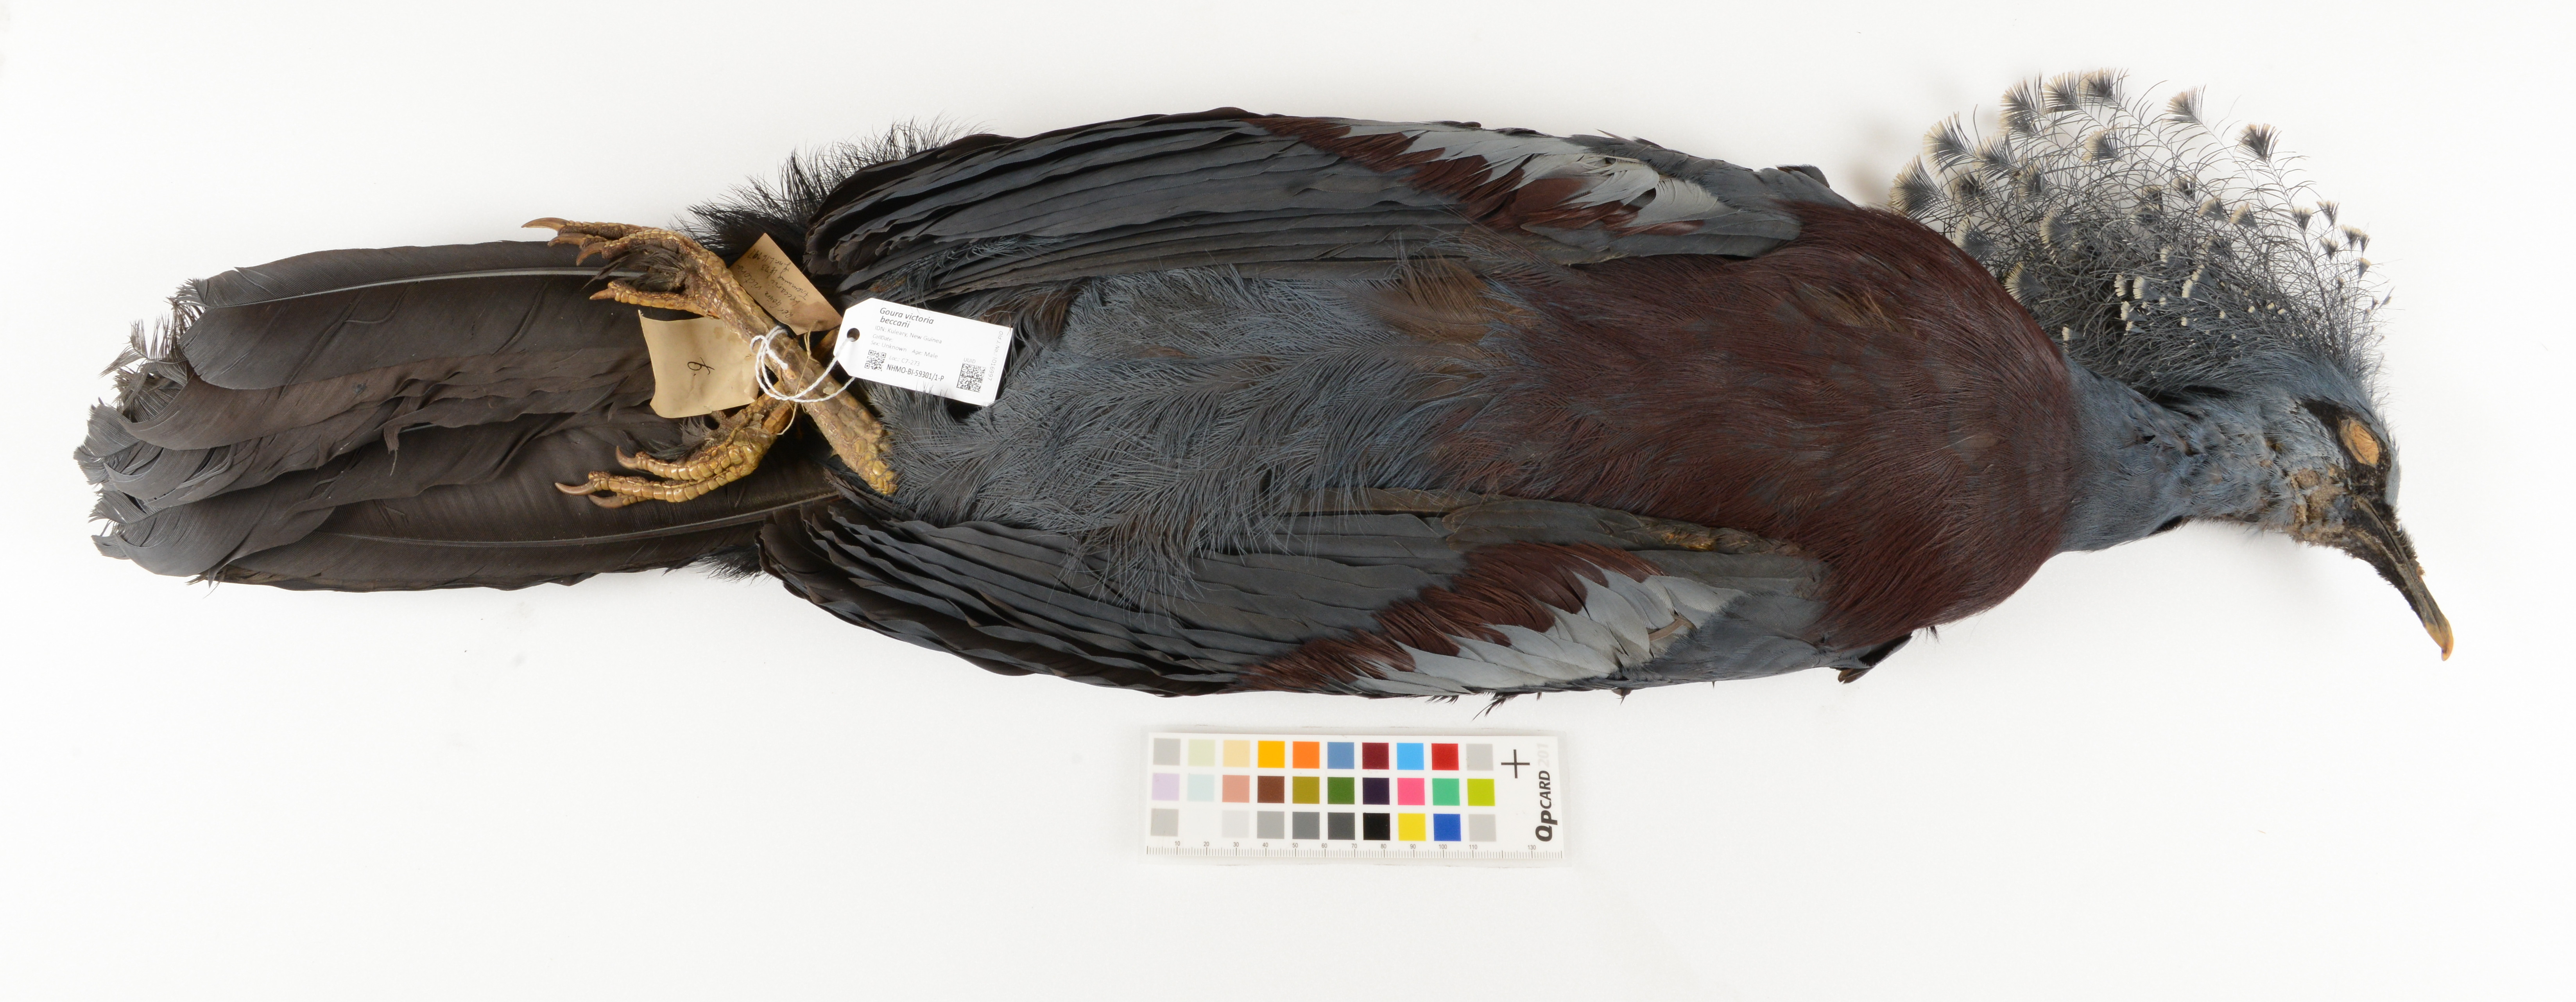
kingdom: Animalia
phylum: Chordata
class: Aves
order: Columbiformes
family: Columbidae
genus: Goura
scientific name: Goura victoria
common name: Victoria crowned pigeon
